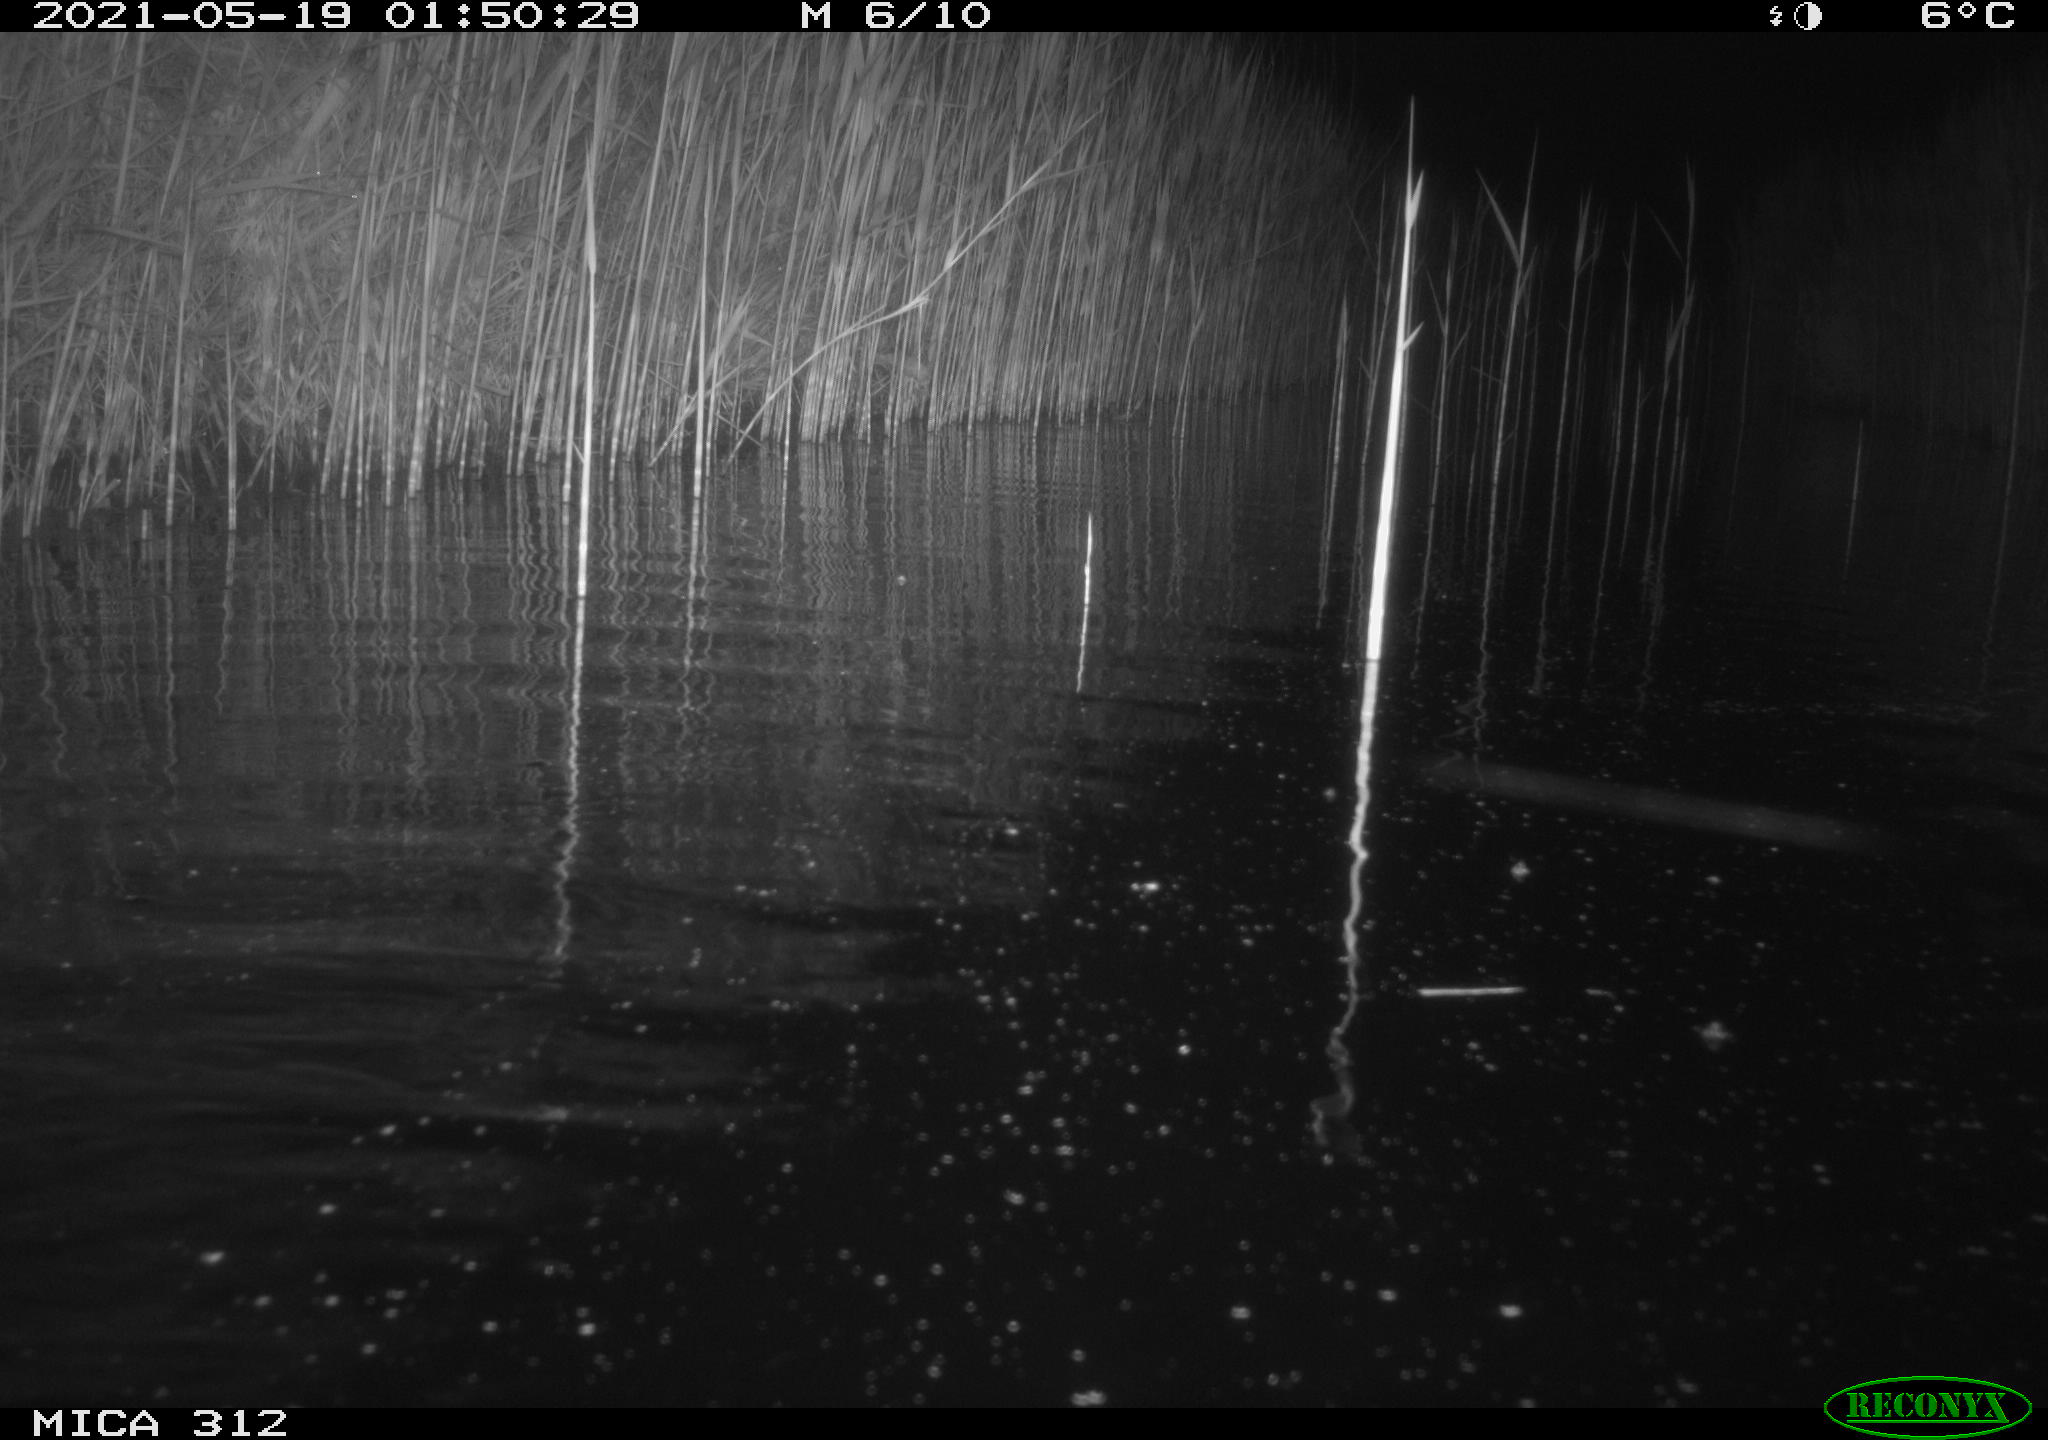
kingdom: Animalia
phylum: Chordata
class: Mammalia
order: Rodentia
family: Cricetidae
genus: Ondatra
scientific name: Ondatra zibethicus
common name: Muskrat
